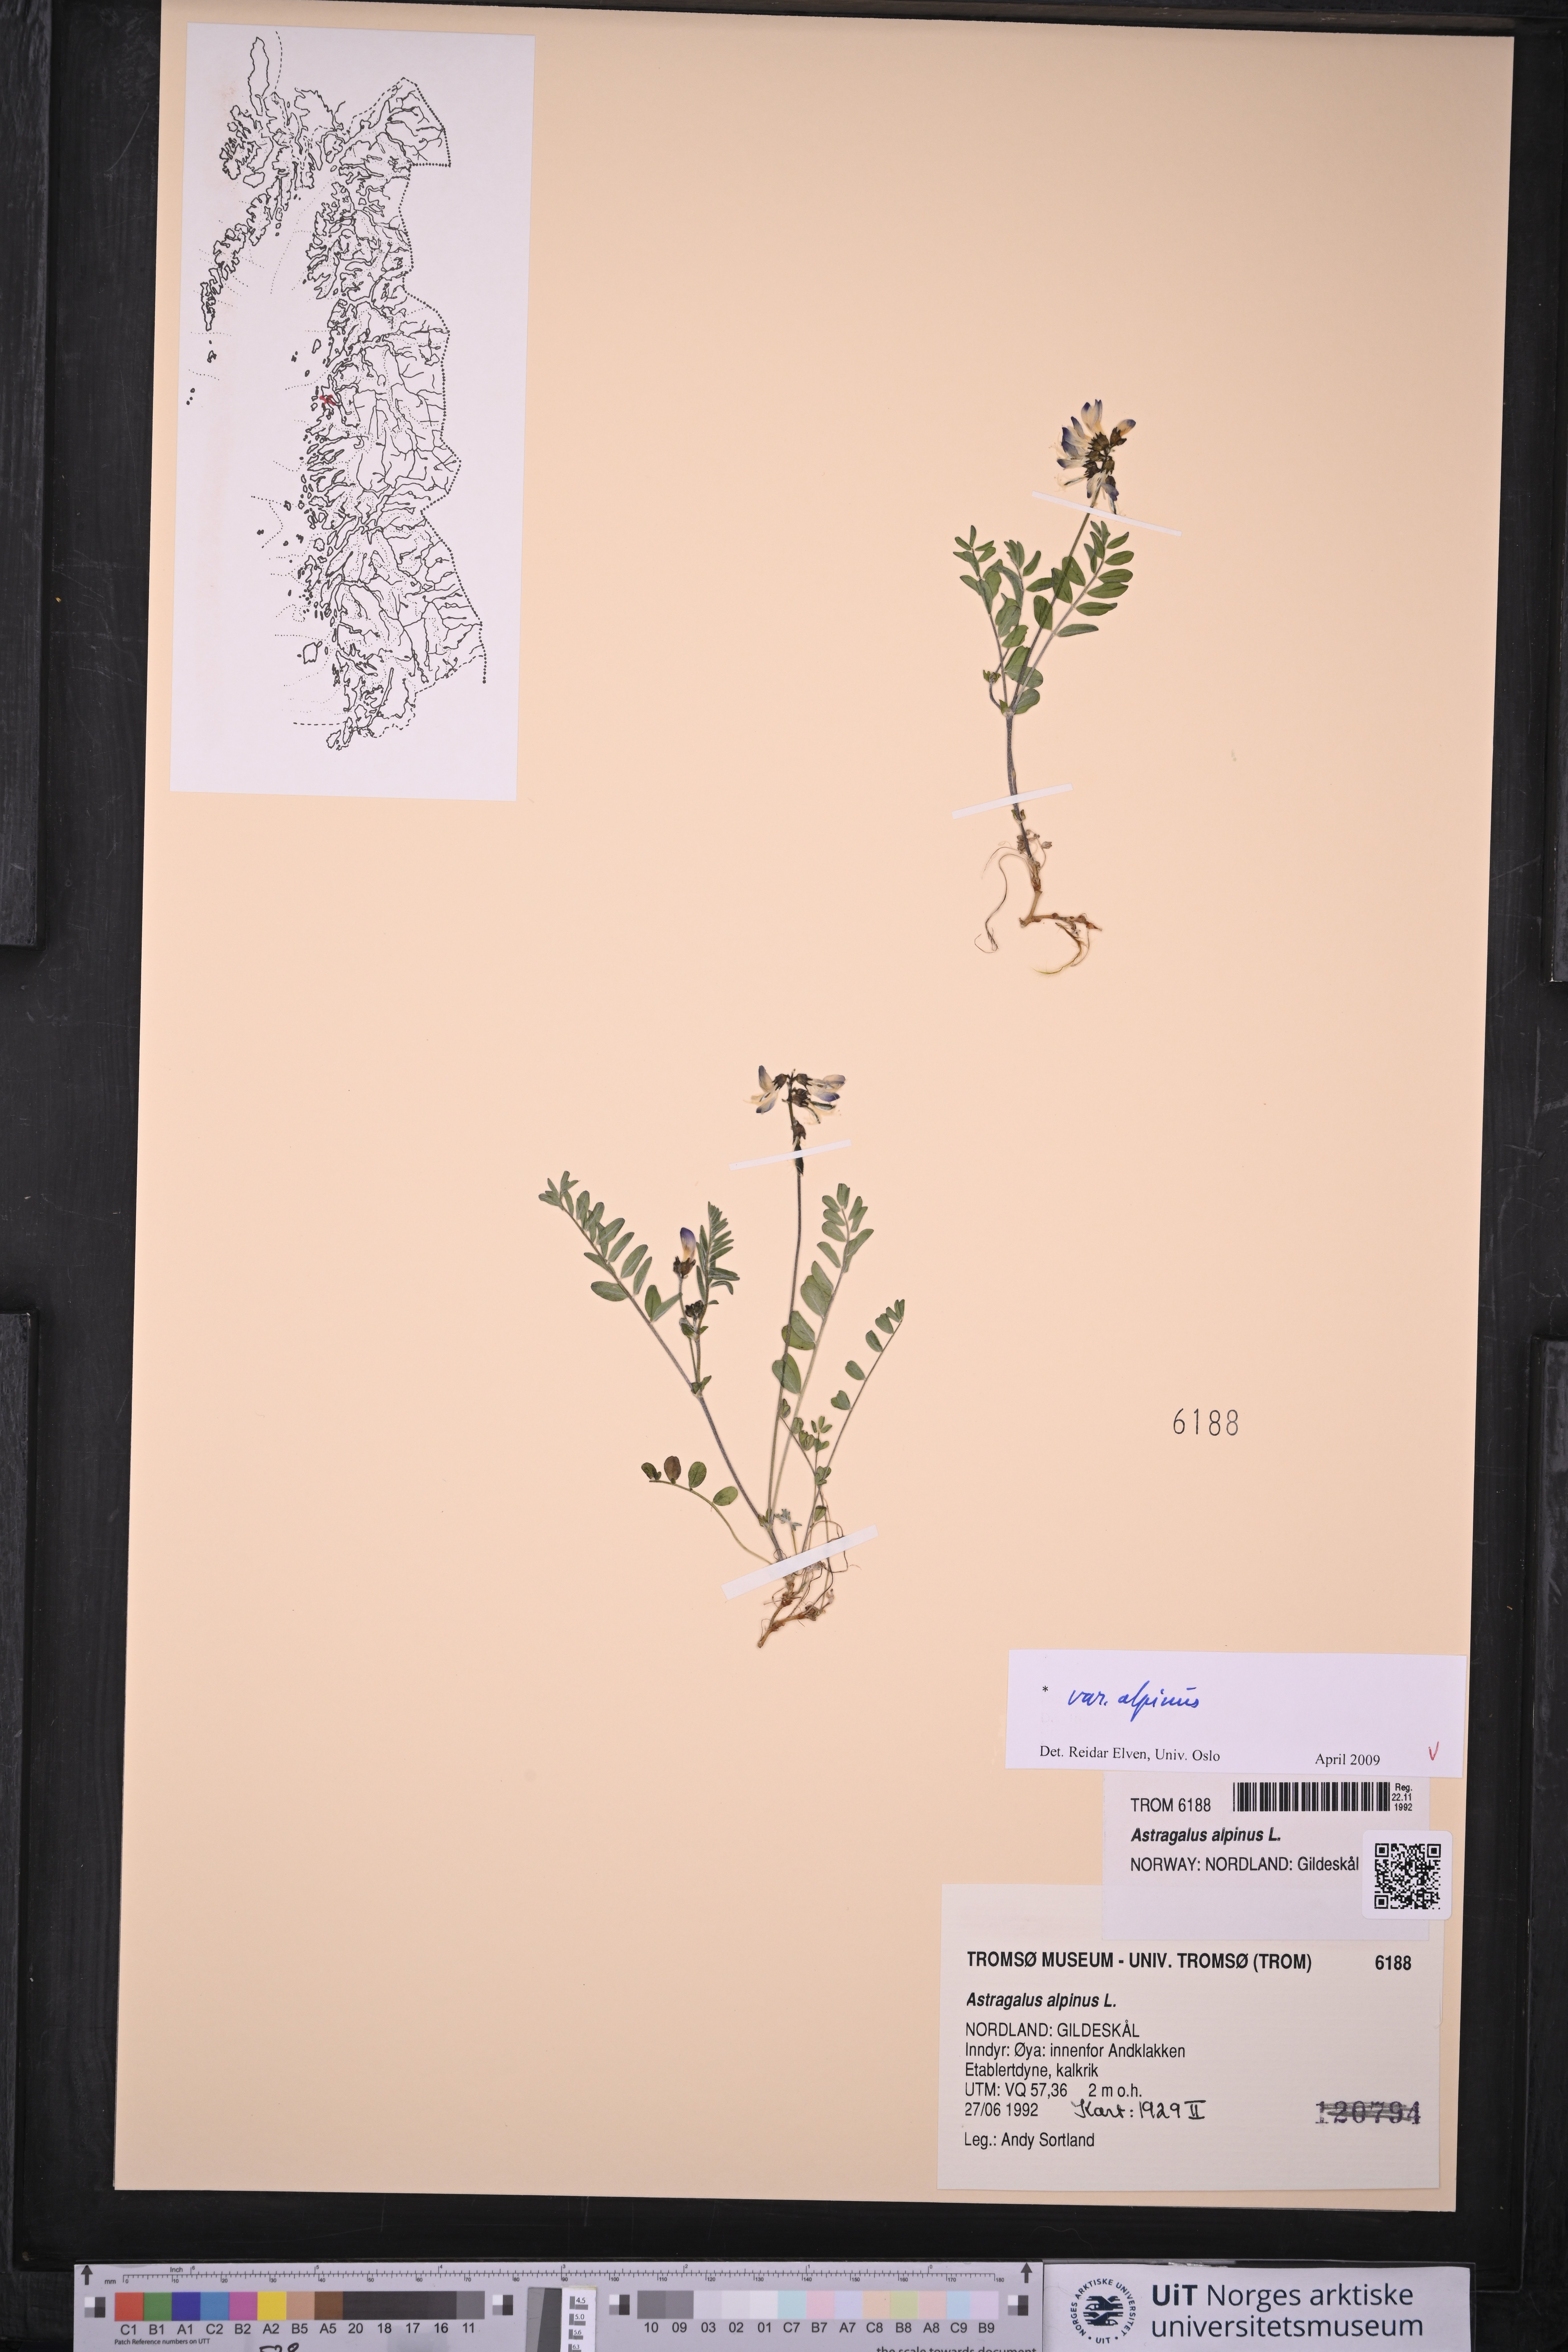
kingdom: Plantae
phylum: Tracheophyta
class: Magnoliopsida
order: Fabales
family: Fabaceae
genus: Astragalus
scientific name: Astragalus alpinus
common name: Alpine milk-vetch
